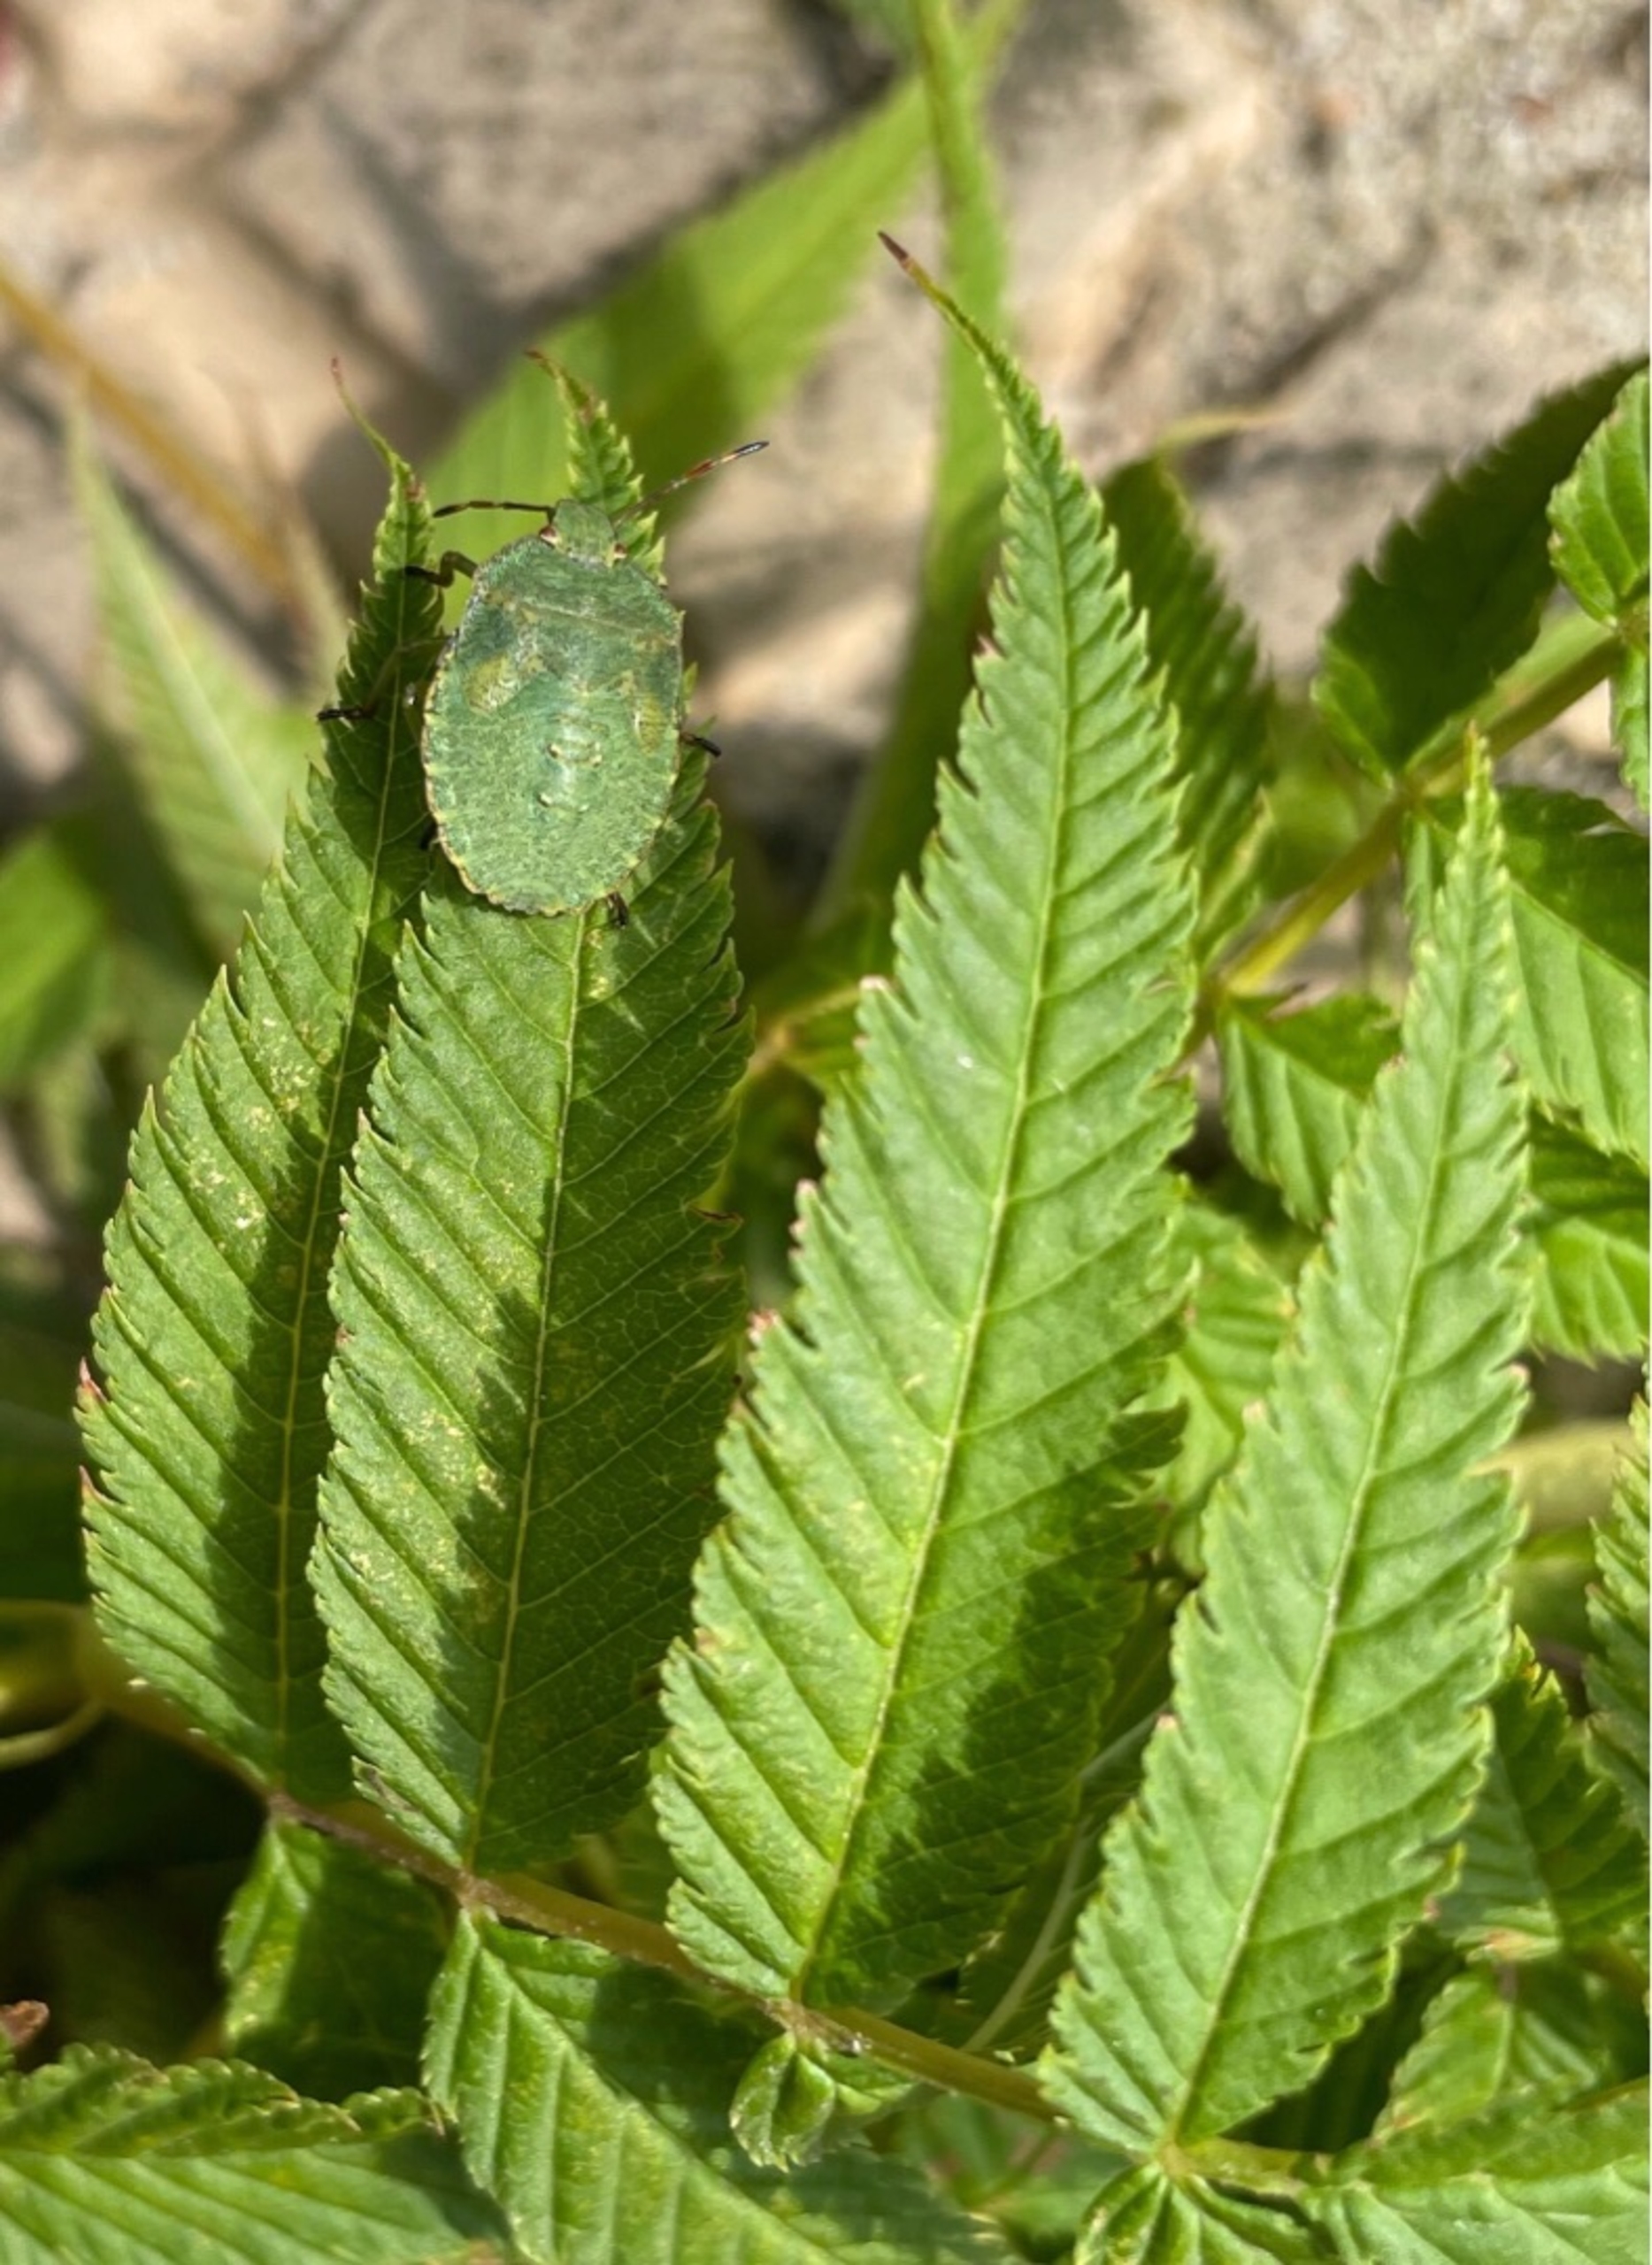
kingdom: Animalia
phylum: Arthropoda
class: Insecta
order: Hemiptera
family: Pentatomidae
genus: Palomena
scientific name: Palomena prasina
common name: Grøn bredtæge
